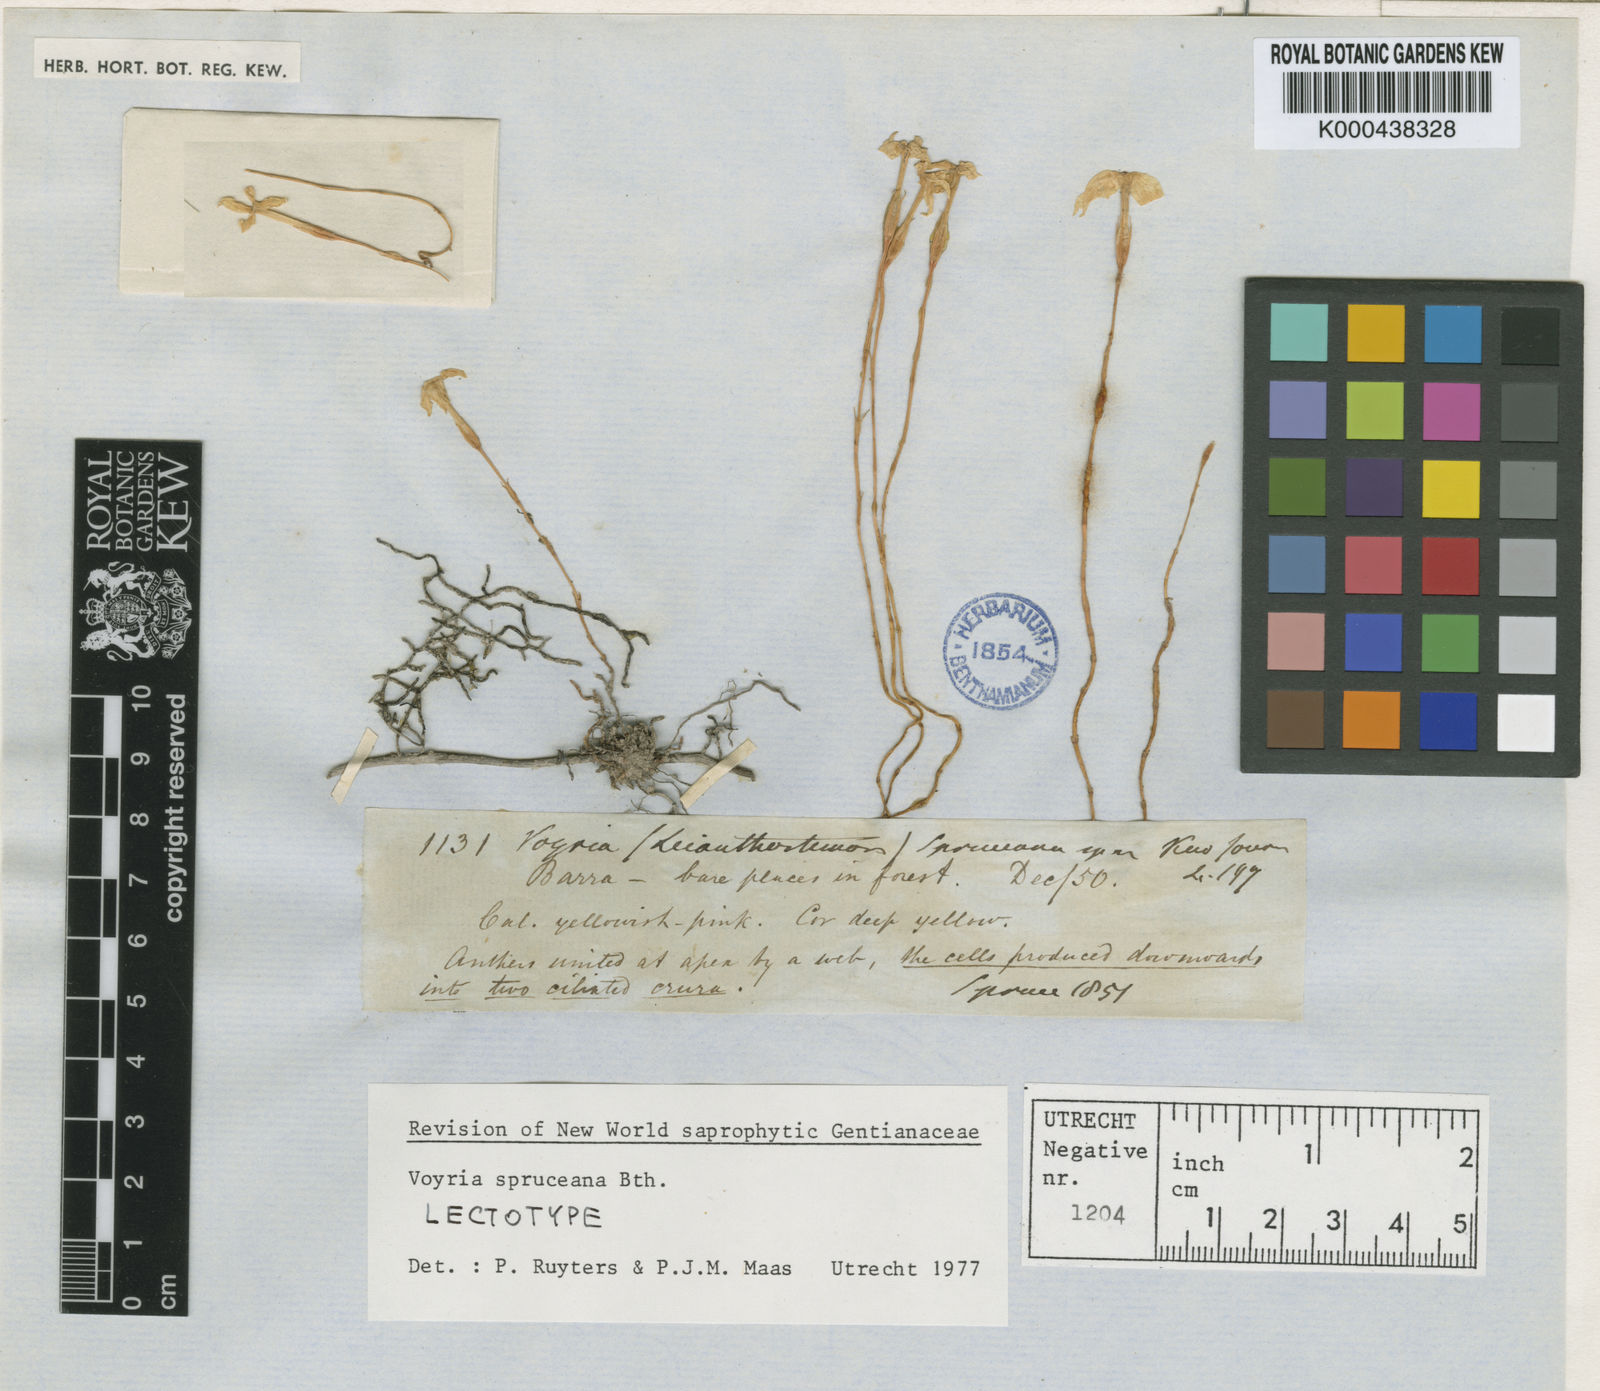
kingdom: Plantae
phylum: Tracheophyta
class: Magnoliopsida
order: Gentianales
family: Gentianaceae
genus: Voyria
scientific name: Voyria spruceana
